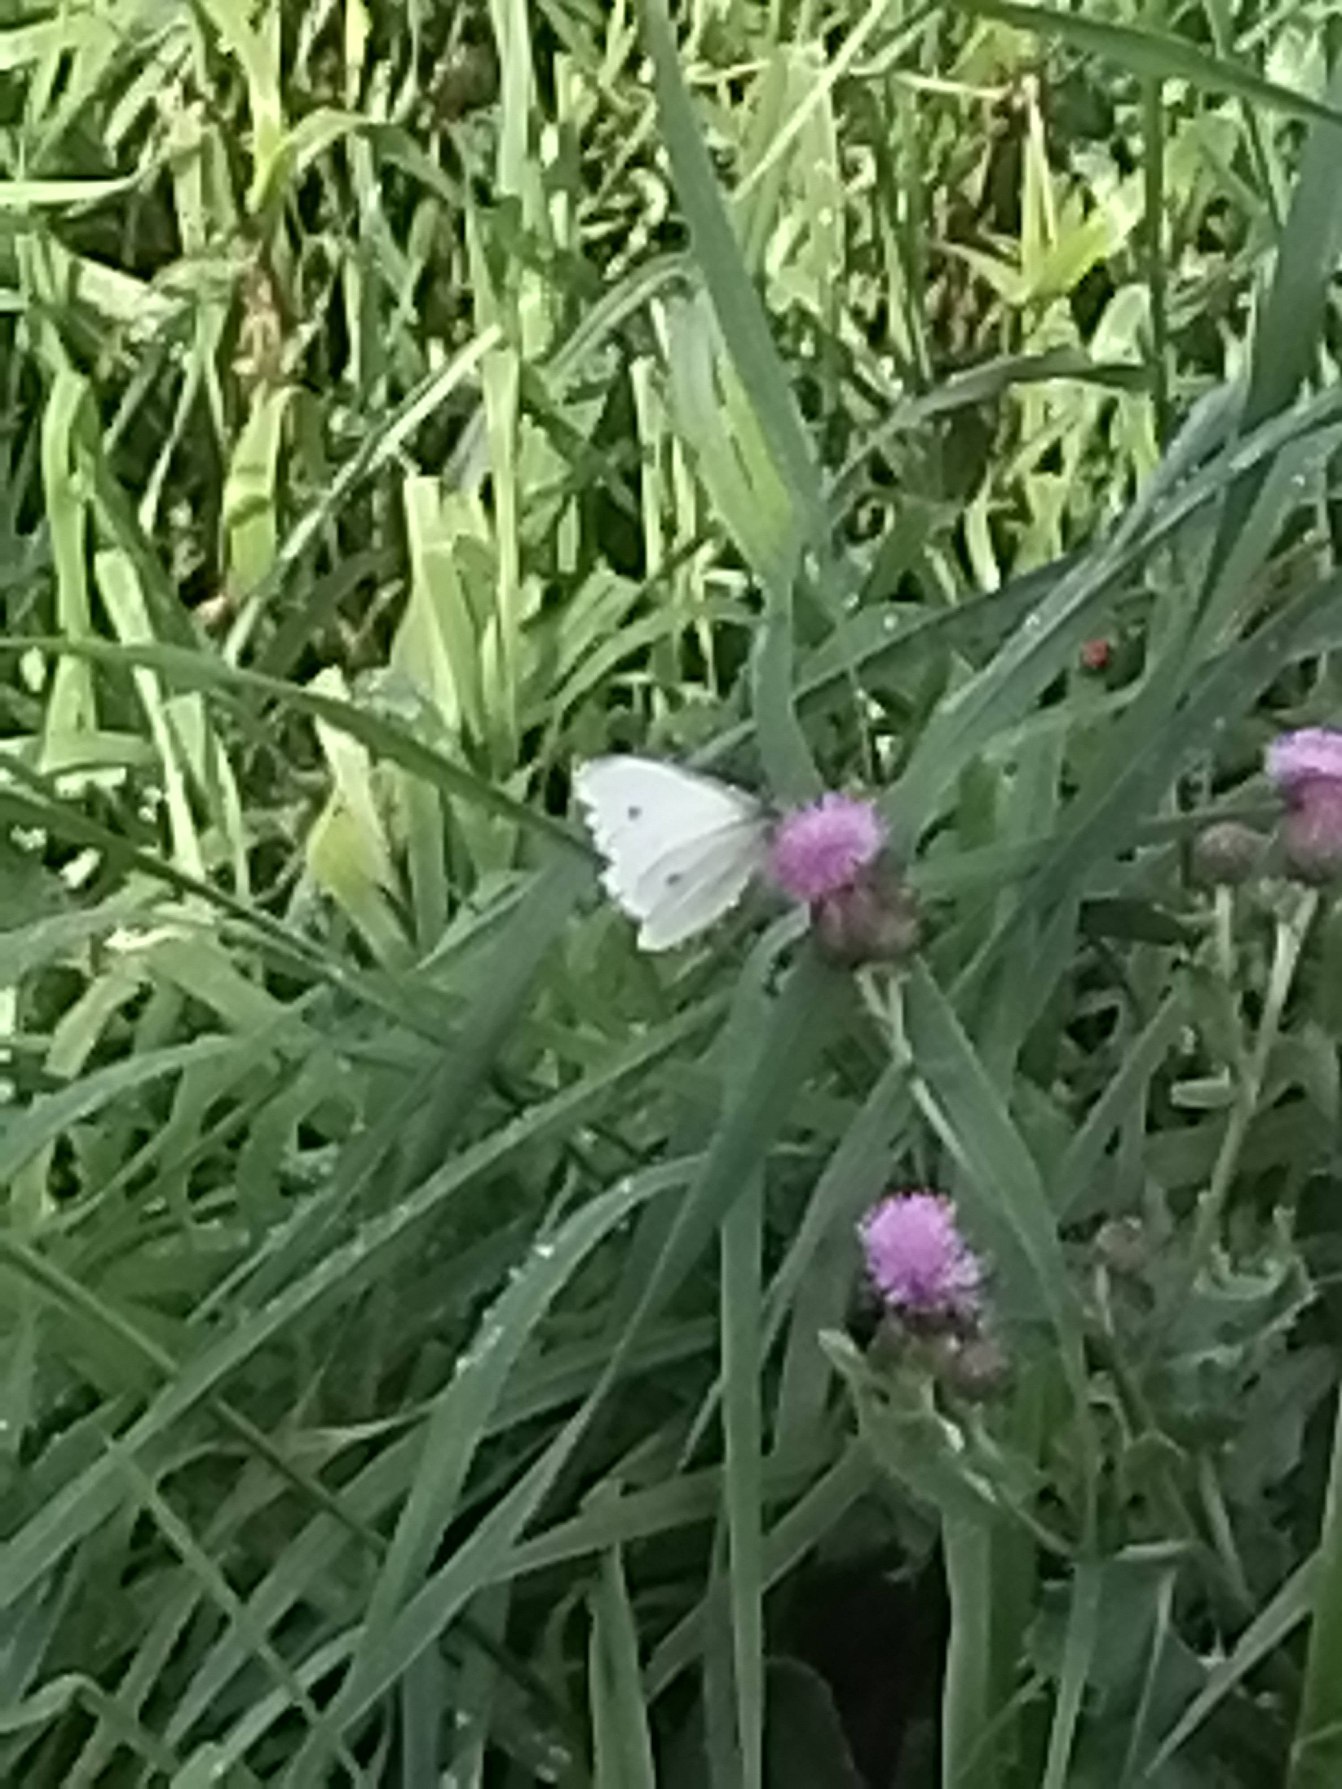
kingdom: Animalia
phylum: Arthropoda
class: Insecta
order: Lepidoptera
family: Pieridae
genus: Pieris
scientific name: Pieris rapae
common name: Lille kålsommerfugl
